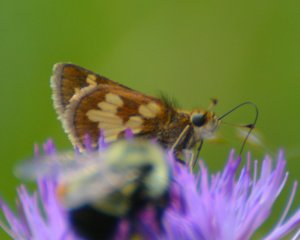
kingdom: Animalia
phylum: Arthropoda
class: Insecta
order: Lepidoptera
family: Hesperiidae
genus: Polites
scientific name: Polites coras
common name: Peck's Skipper
